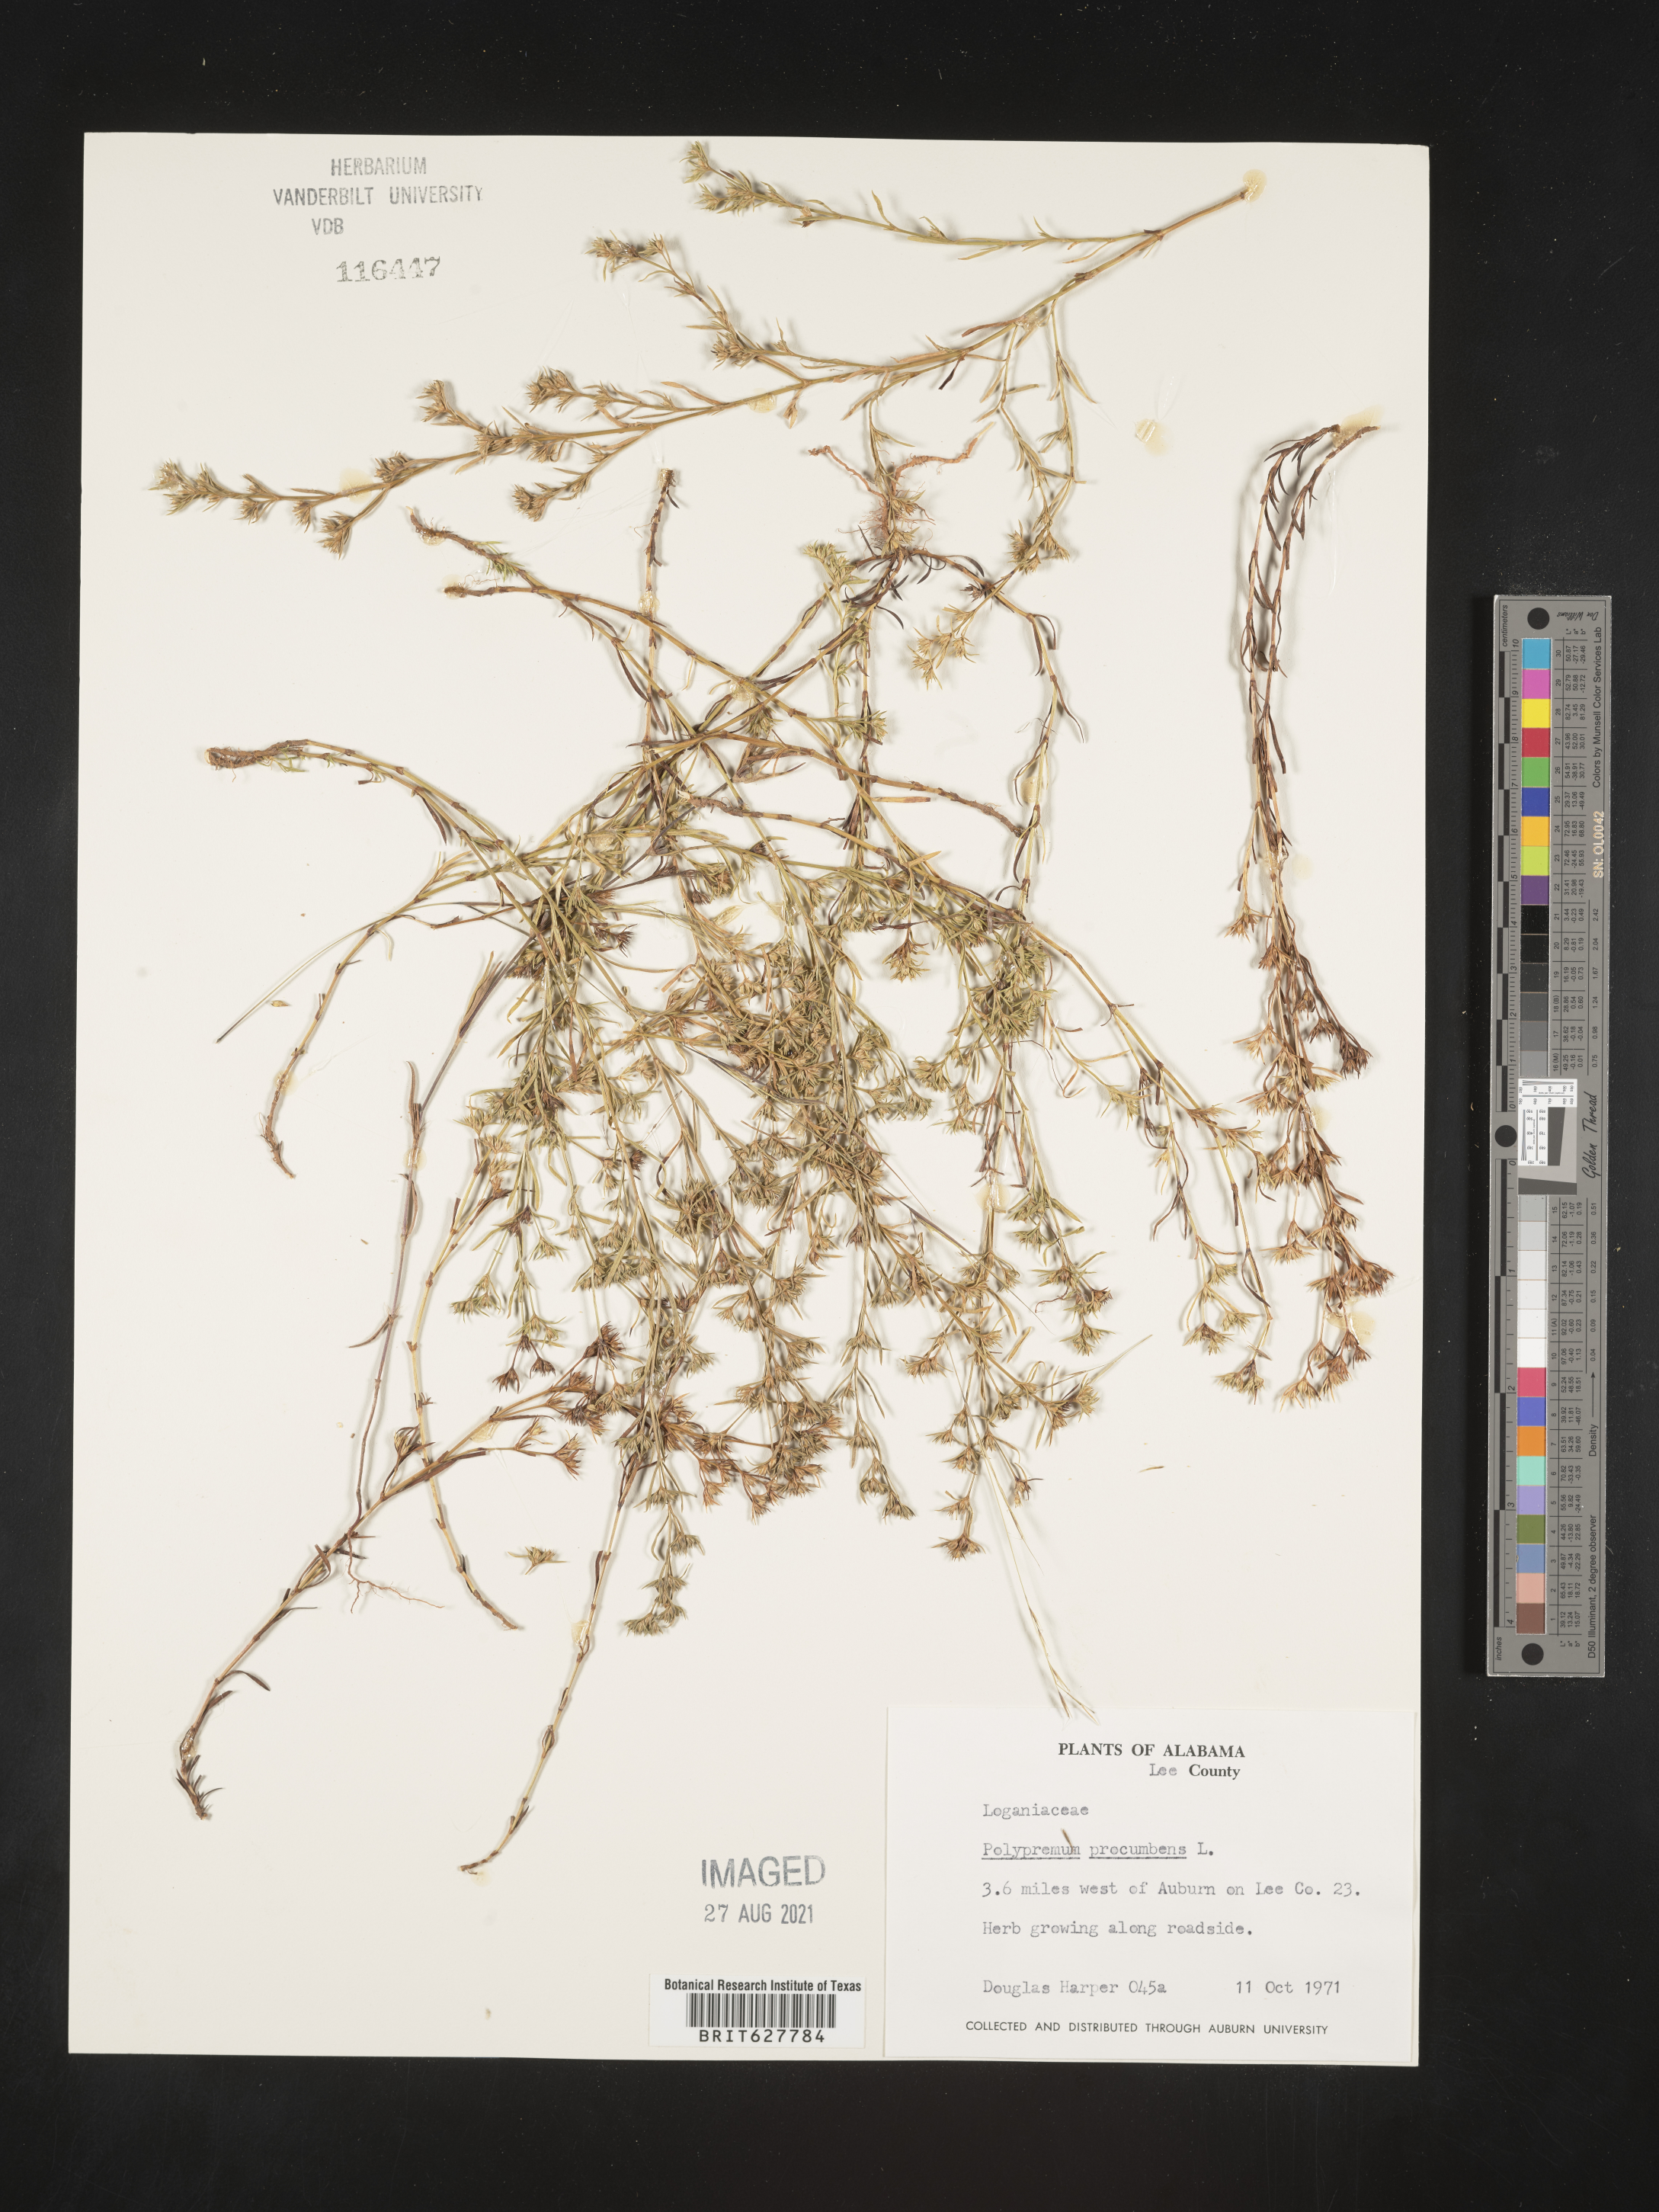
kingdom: Plantae
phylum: Tracheophyta
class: Magnoliopsida
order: Lamiales
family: Tetrachondraceae
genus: Polypremum
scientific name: Polypremum procumbens
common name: Juniper-leaf
